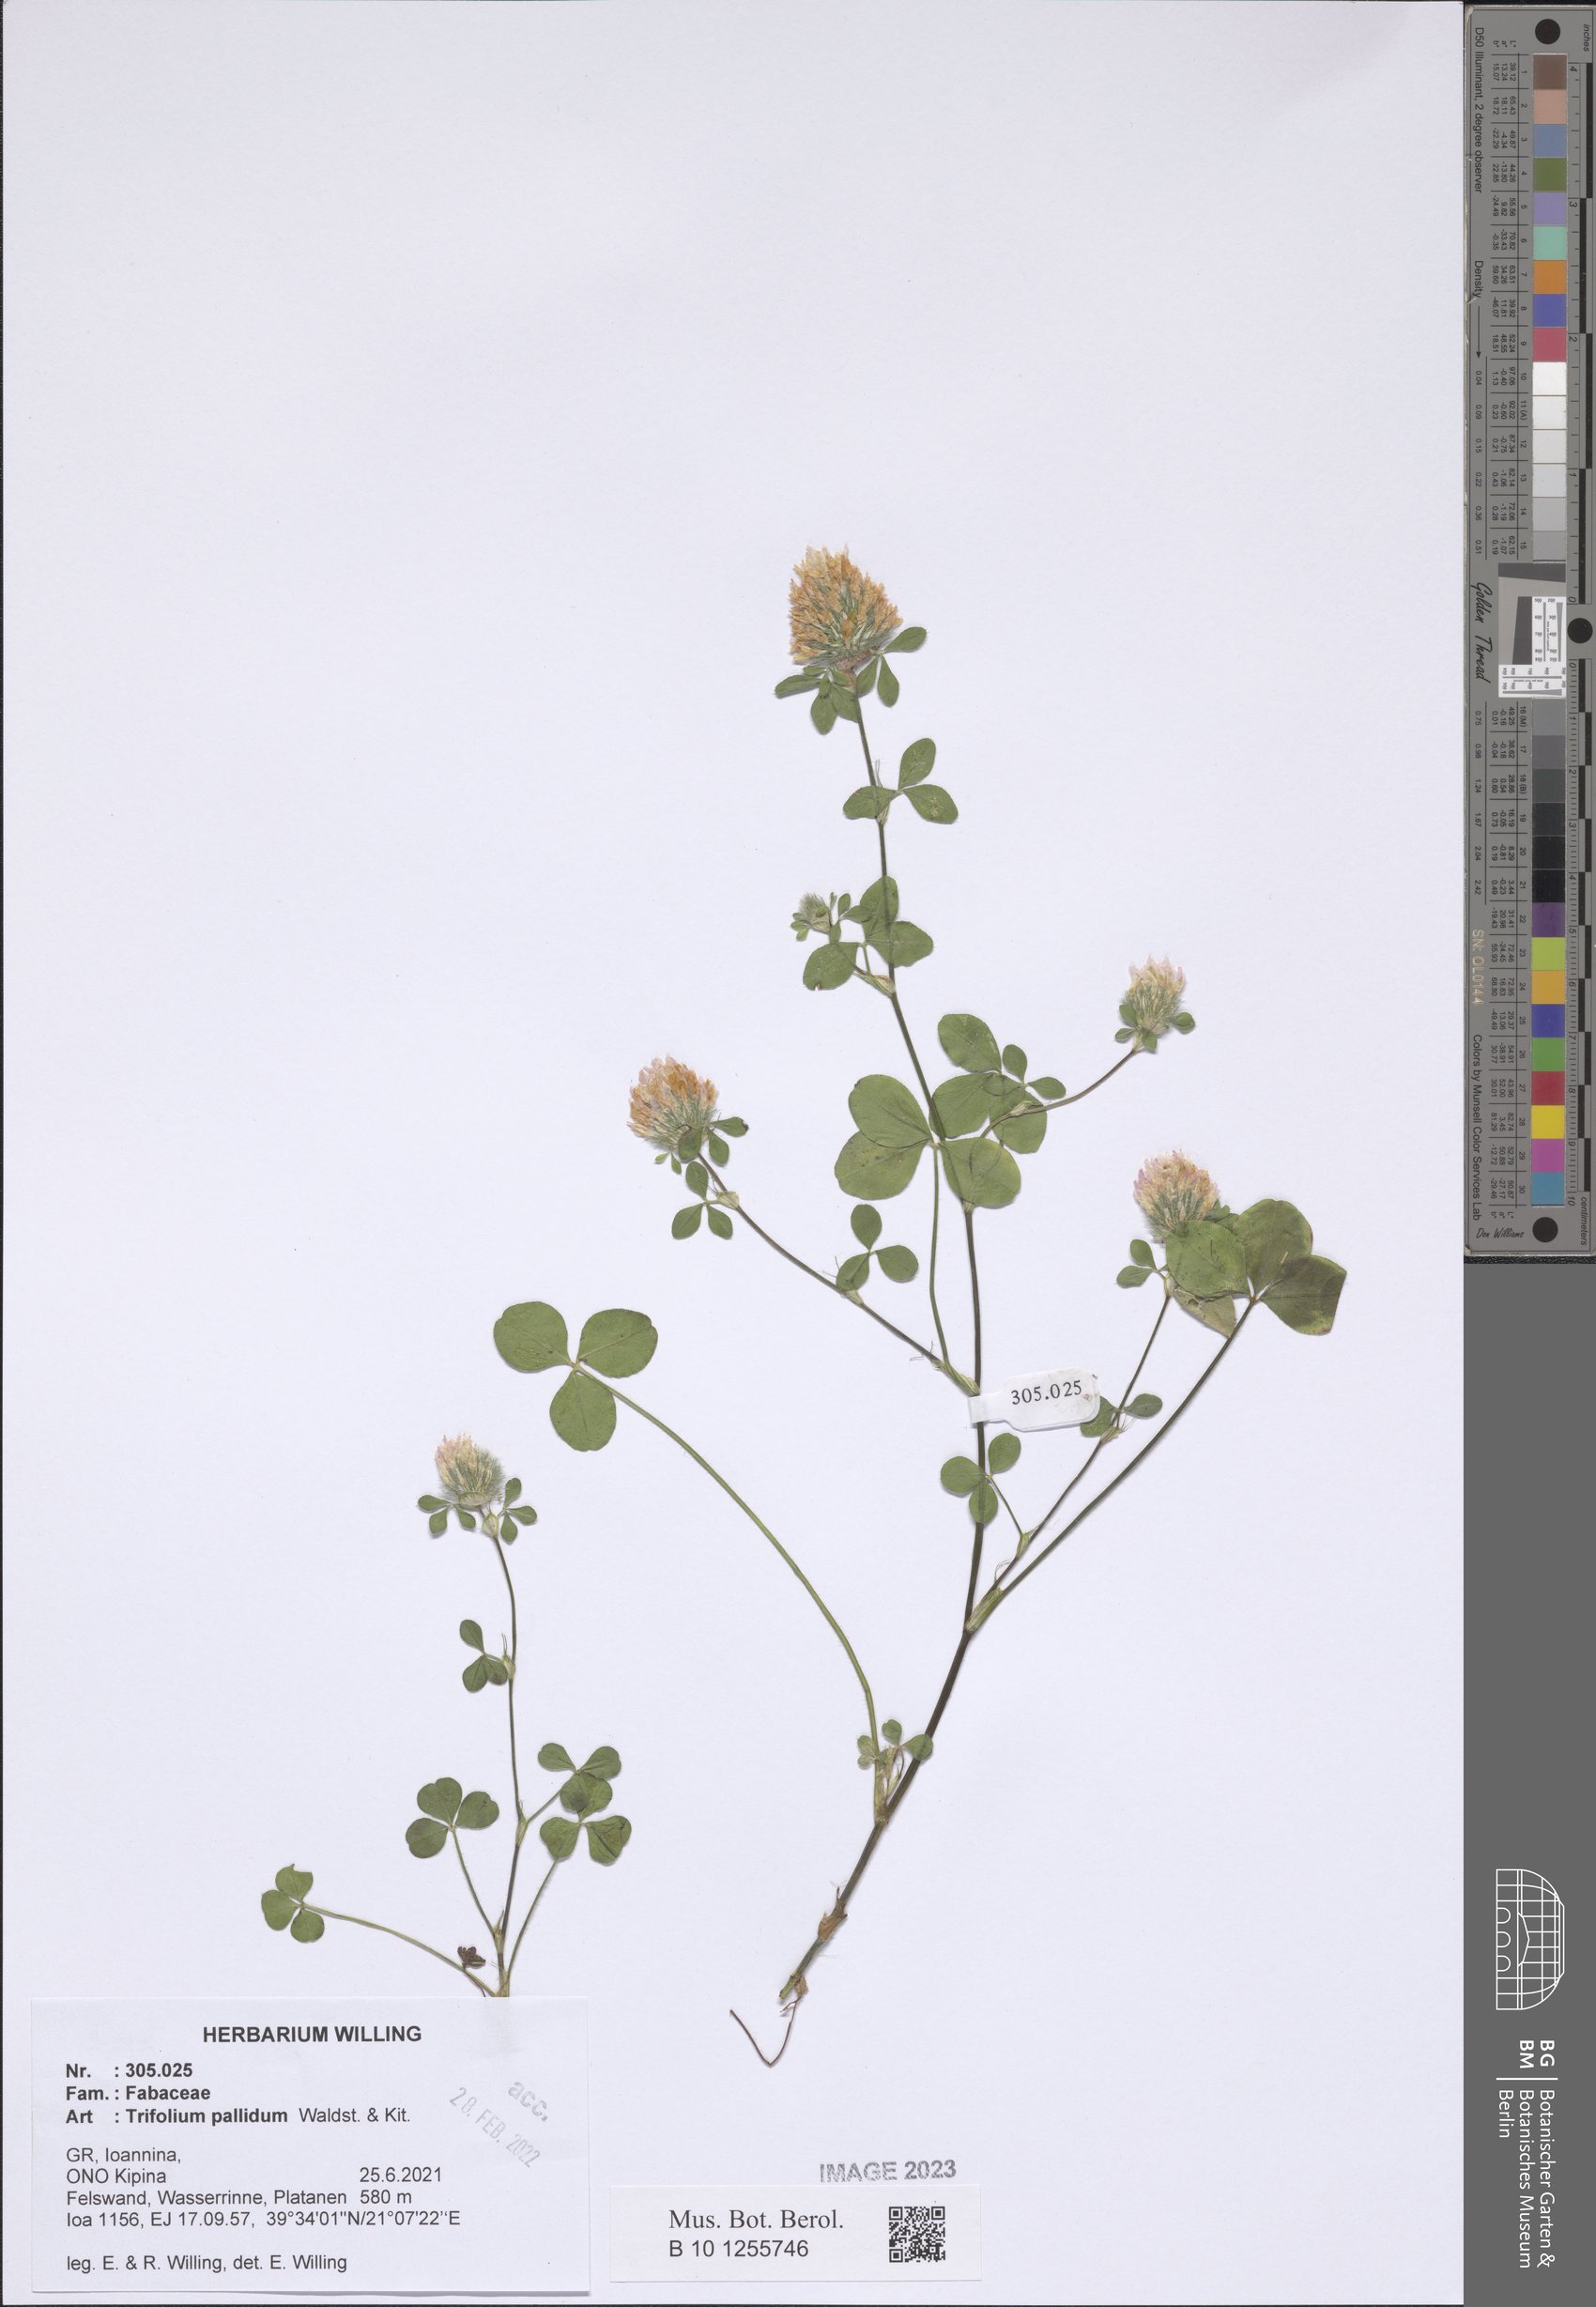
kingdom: Plantae
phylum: Tracheophyta
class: Magnoliopsida
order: Fabales
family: Fabaceae
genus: Trifolium
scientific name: Trifolium pallidum
